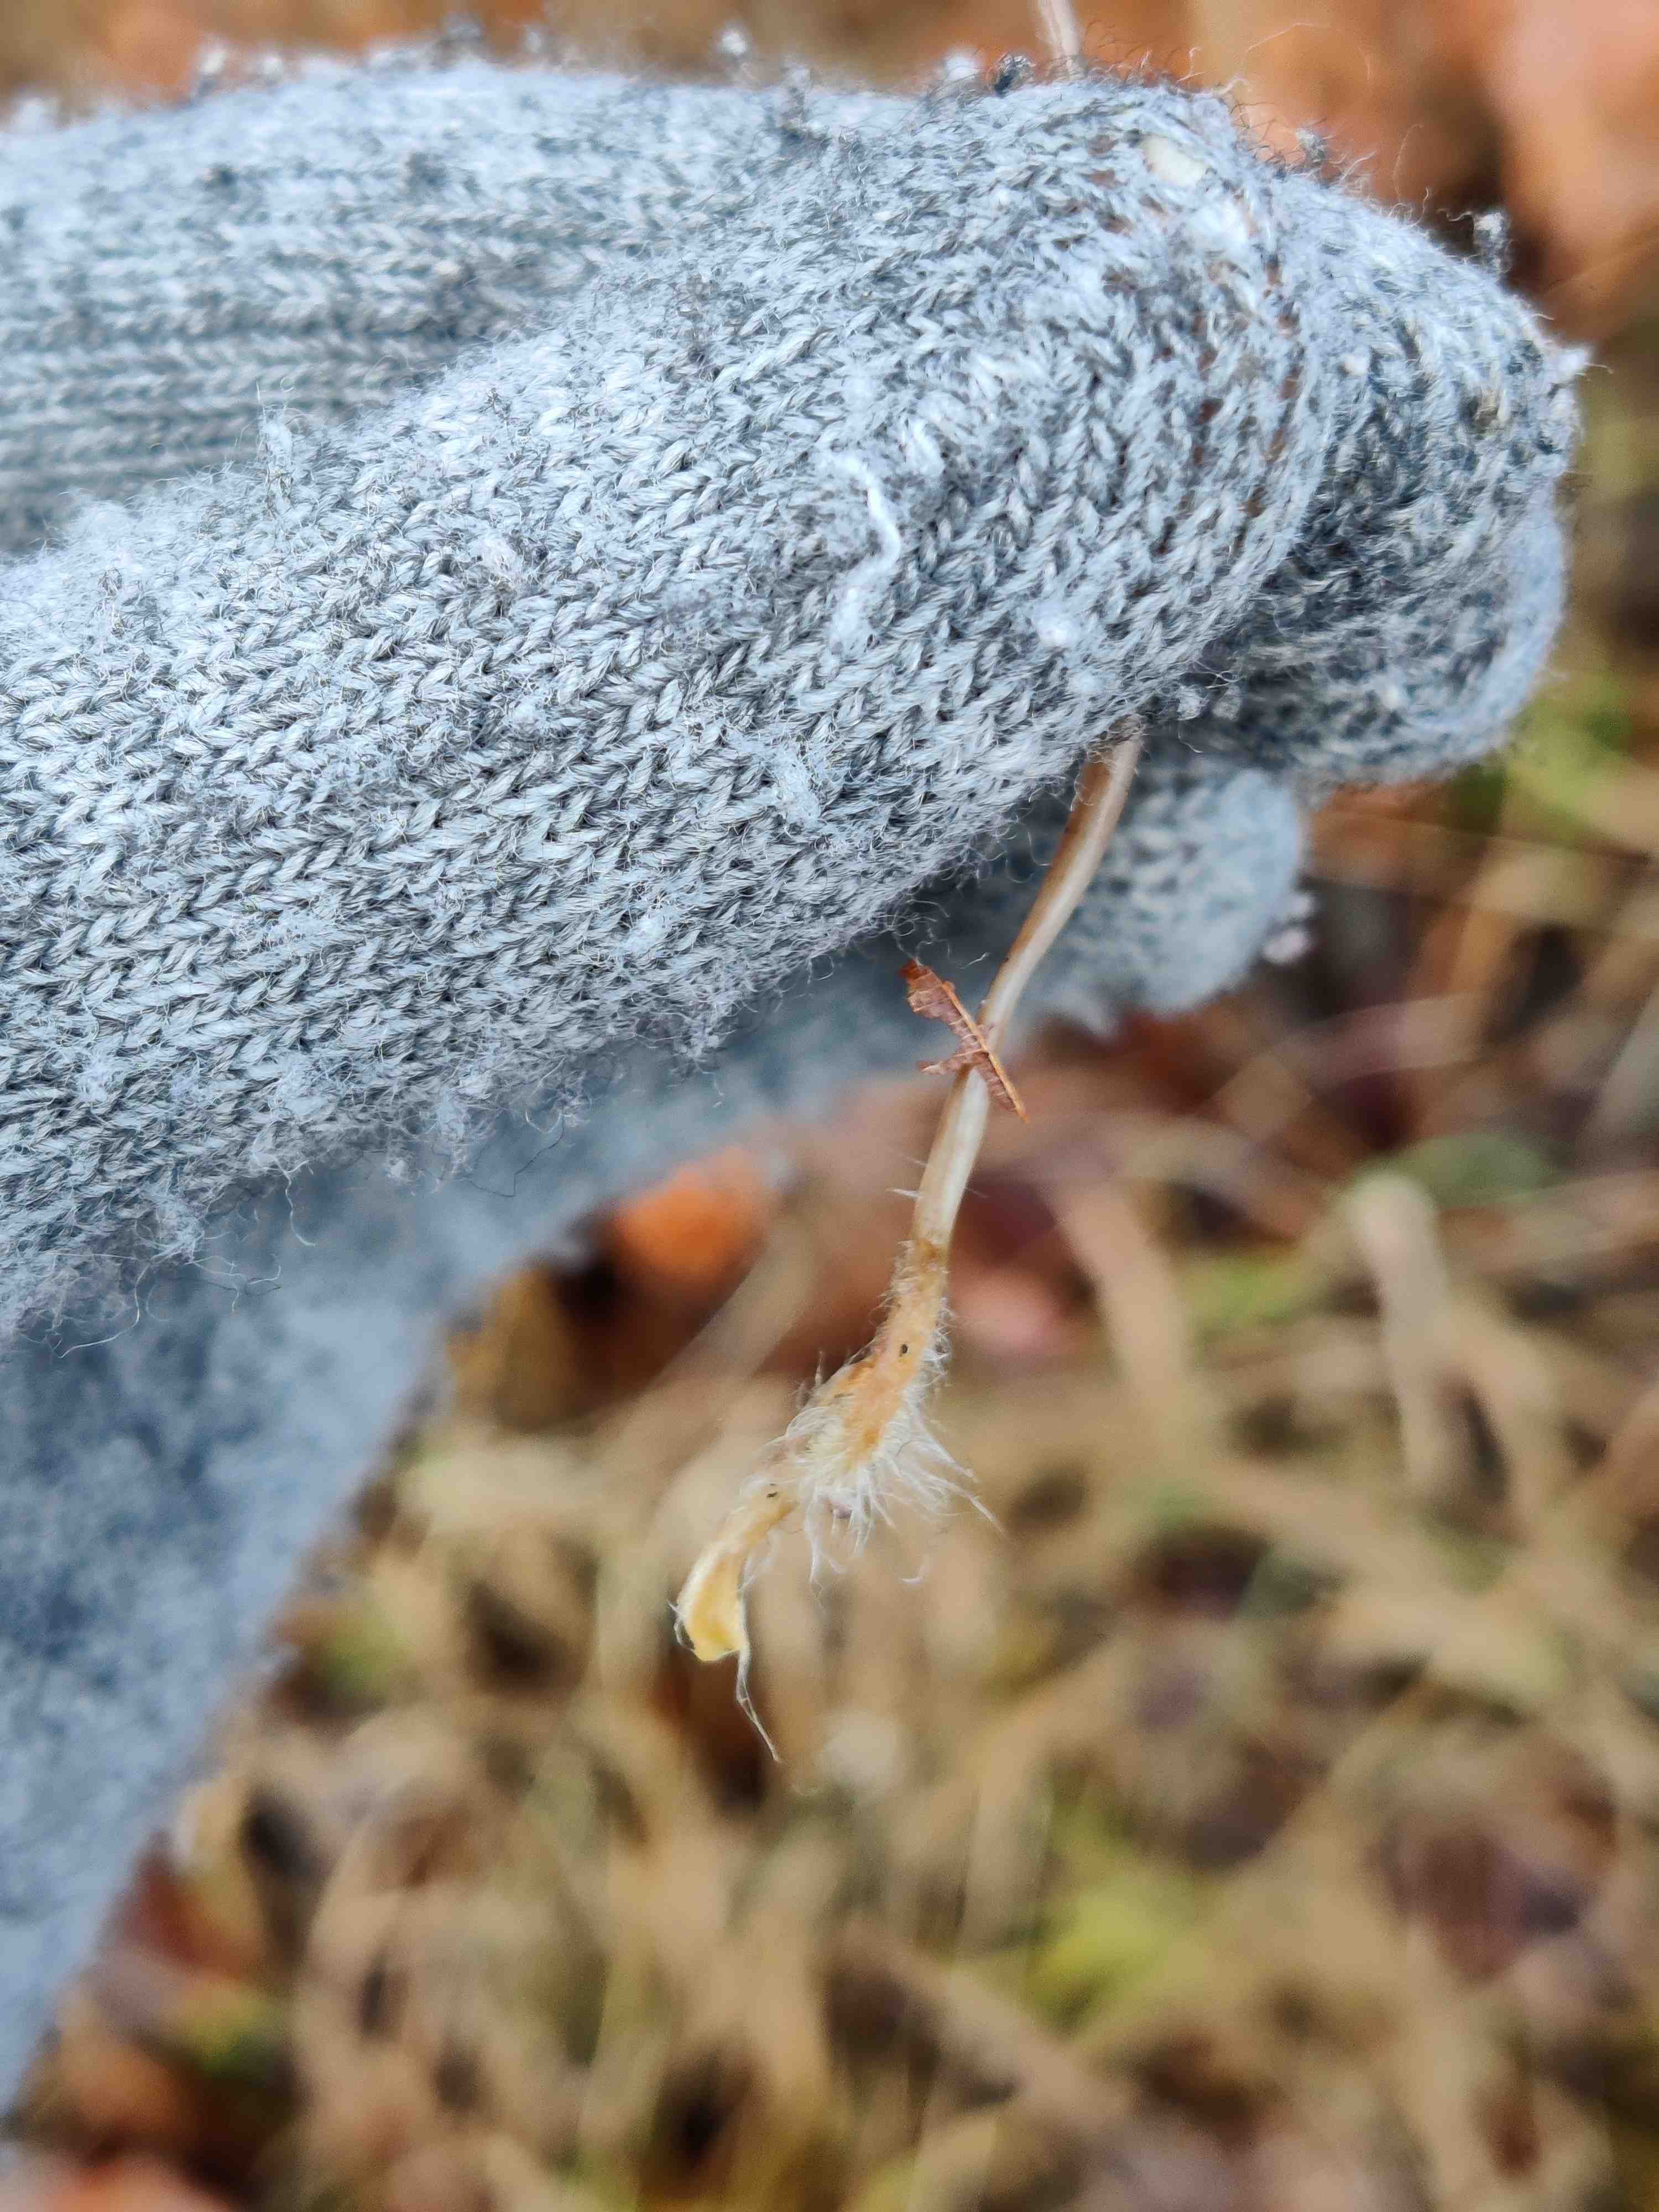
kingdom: Fungi
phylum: Basidiomycota
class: Agaricomycetes
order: Agaricales
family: Mycenaceae
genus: Mycena
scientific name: Mycena vitilis
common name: blankstokket huesvamp
